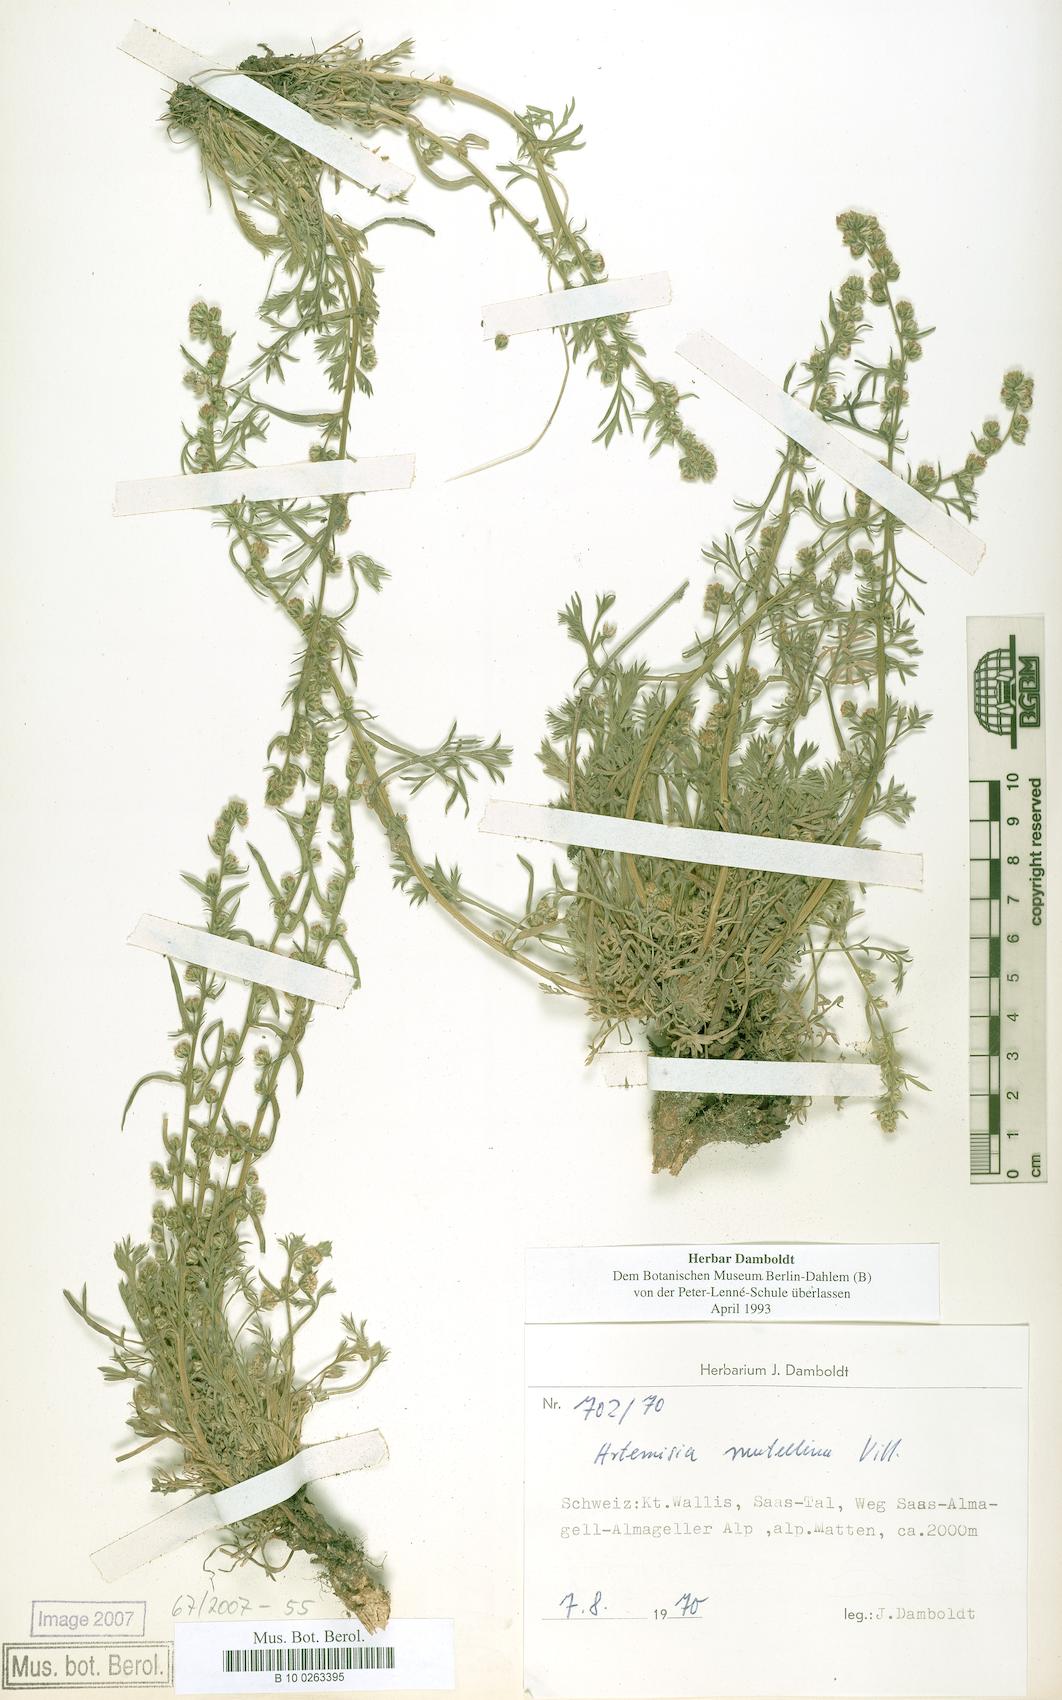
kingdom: Plantae
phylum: Tracheophyta
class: Magnoliopsida
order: Asterales
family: Asteraceae
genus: Artemisia
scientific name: Artemisia mutellina
